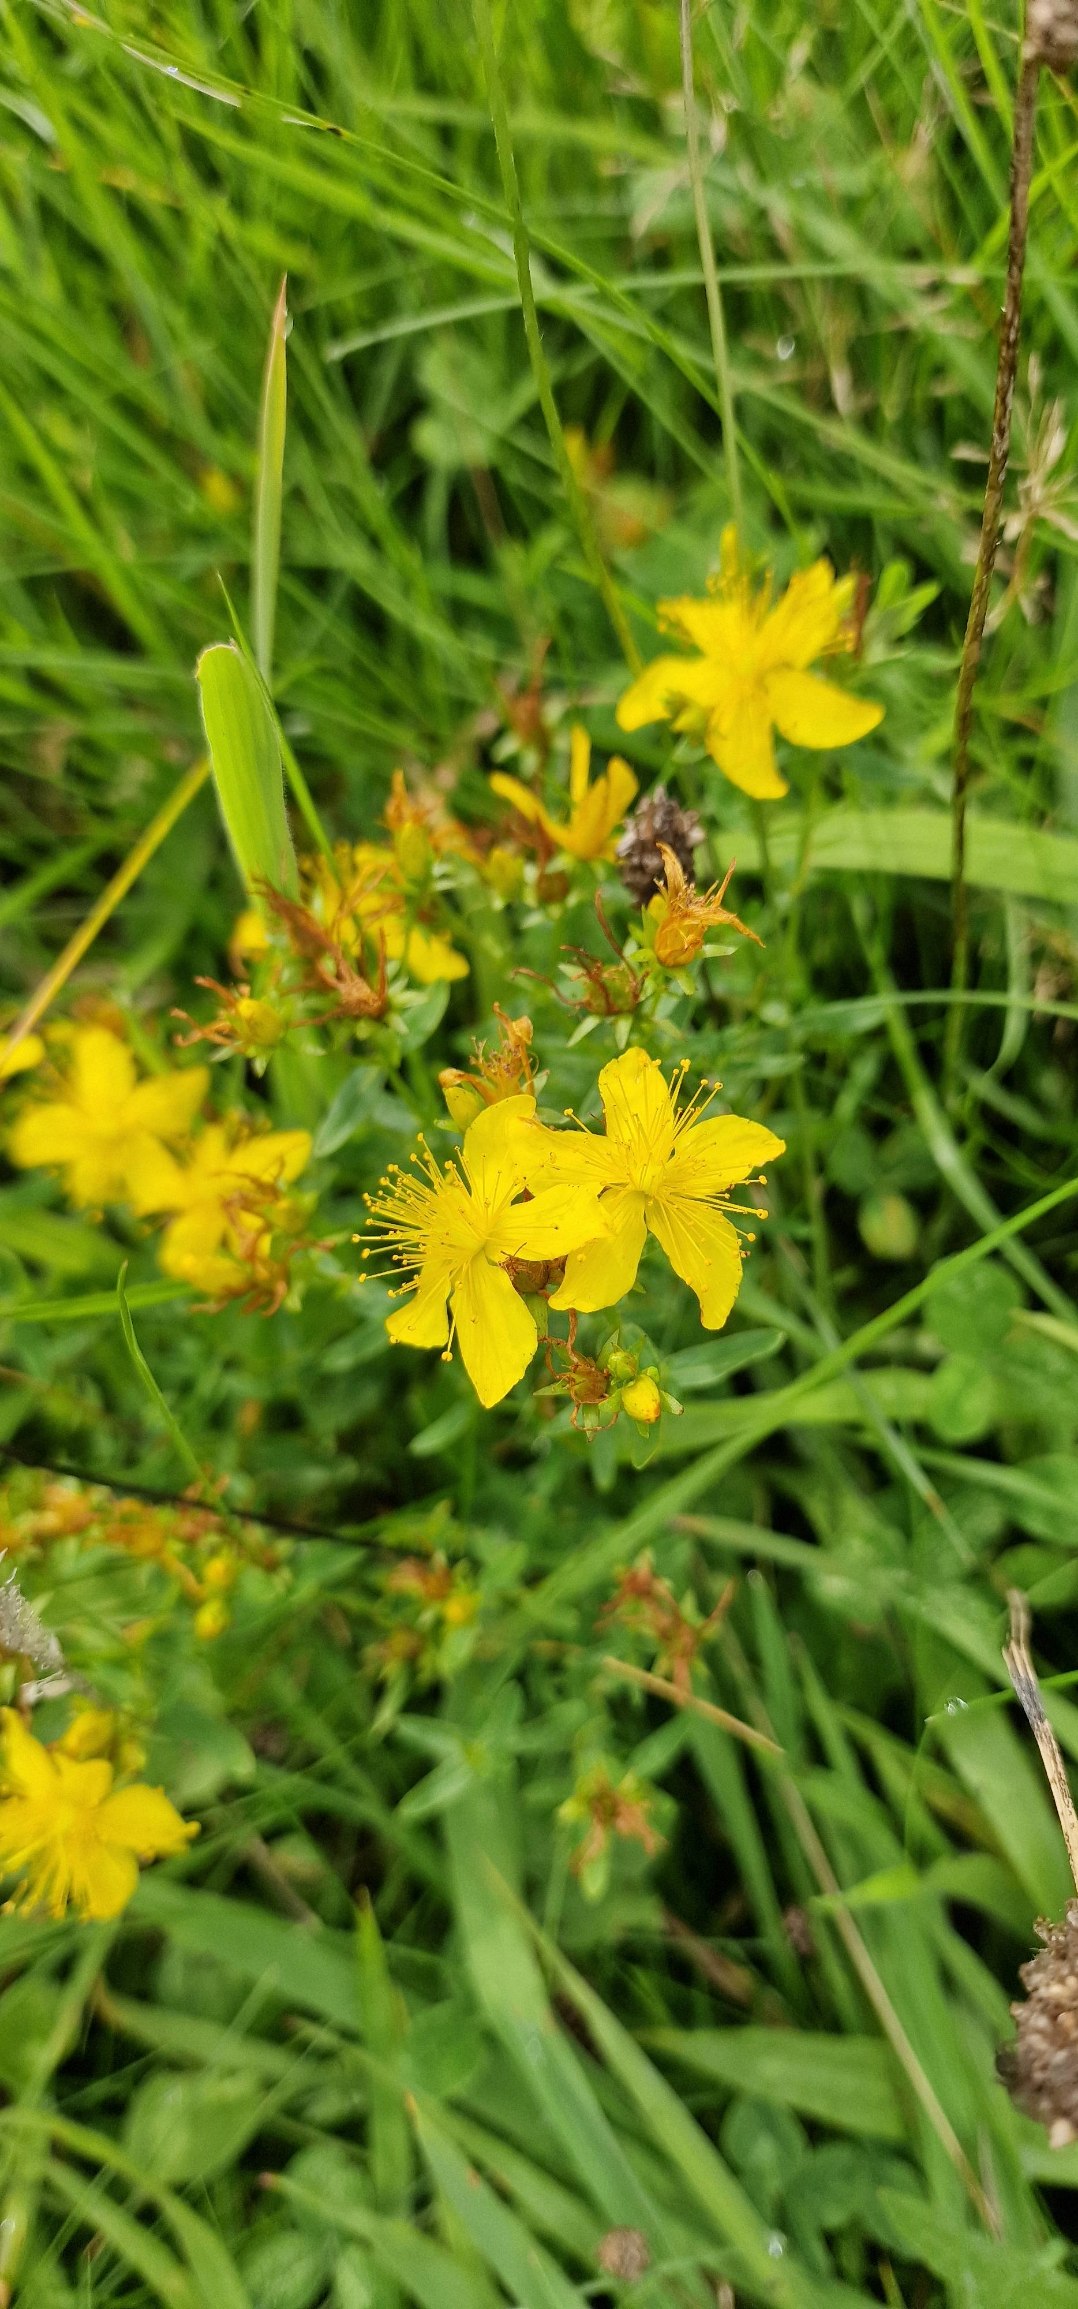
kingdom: Plantae
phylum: Tracheophyta
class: Magnoliopsida
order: Malpighiales
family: Hypericaceae
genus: Hypericum
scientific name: Hypericum perforatum
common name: Prikbladet perikon
